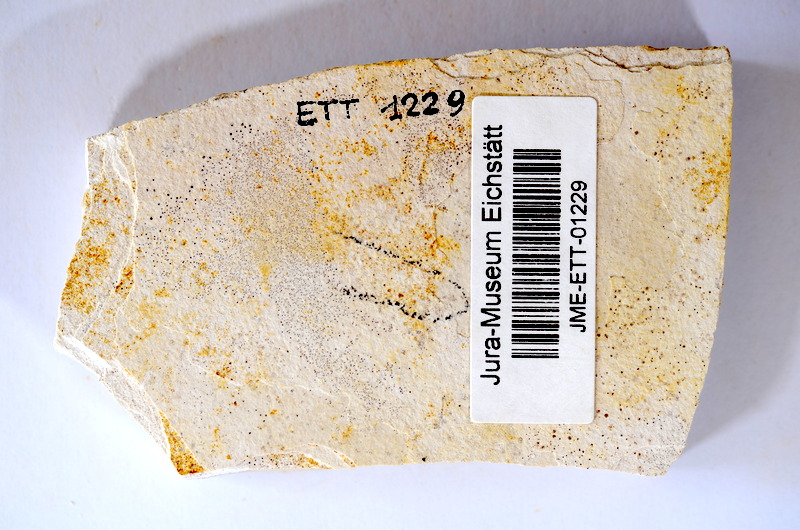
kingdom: Animalia
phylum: Chordata
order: Salmoniformes
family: Orthogonikleithridae
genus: Orthogonikleithrus
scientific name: Orthogonikleithrus hoelli
